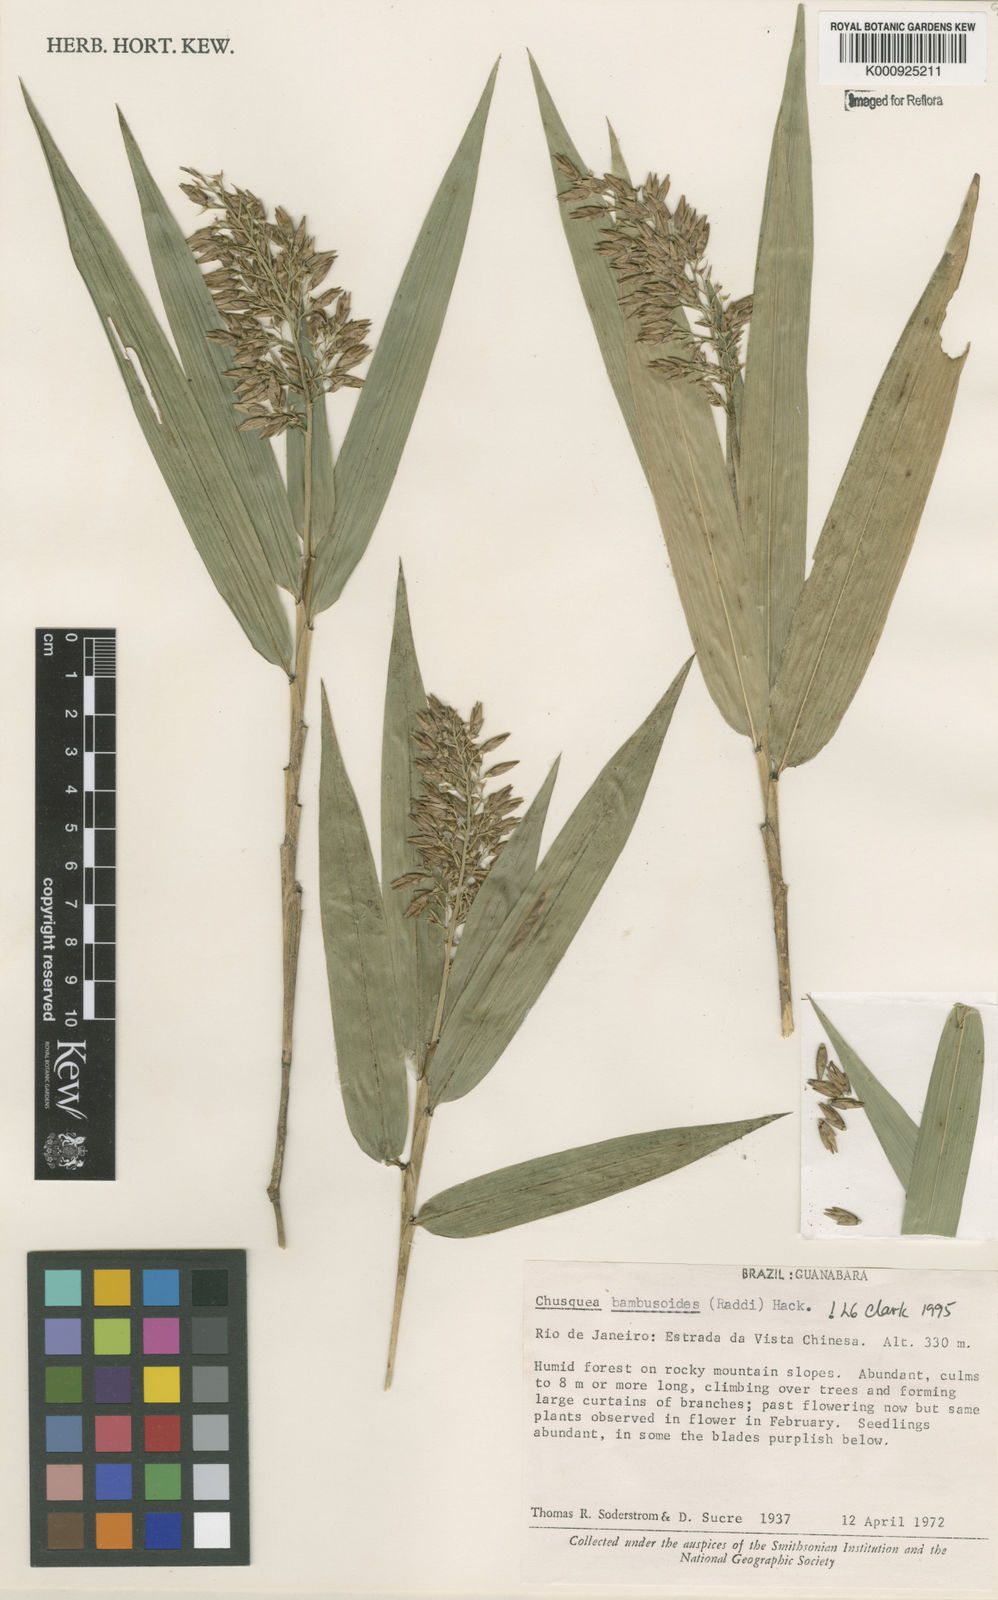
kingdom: Plantae
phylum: Tracheophyta
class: Liliopsida
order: Poales
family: Poaceae
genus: Chusquea
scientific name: Chusquea bambusoides
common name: Brazil scrambling bamboo
